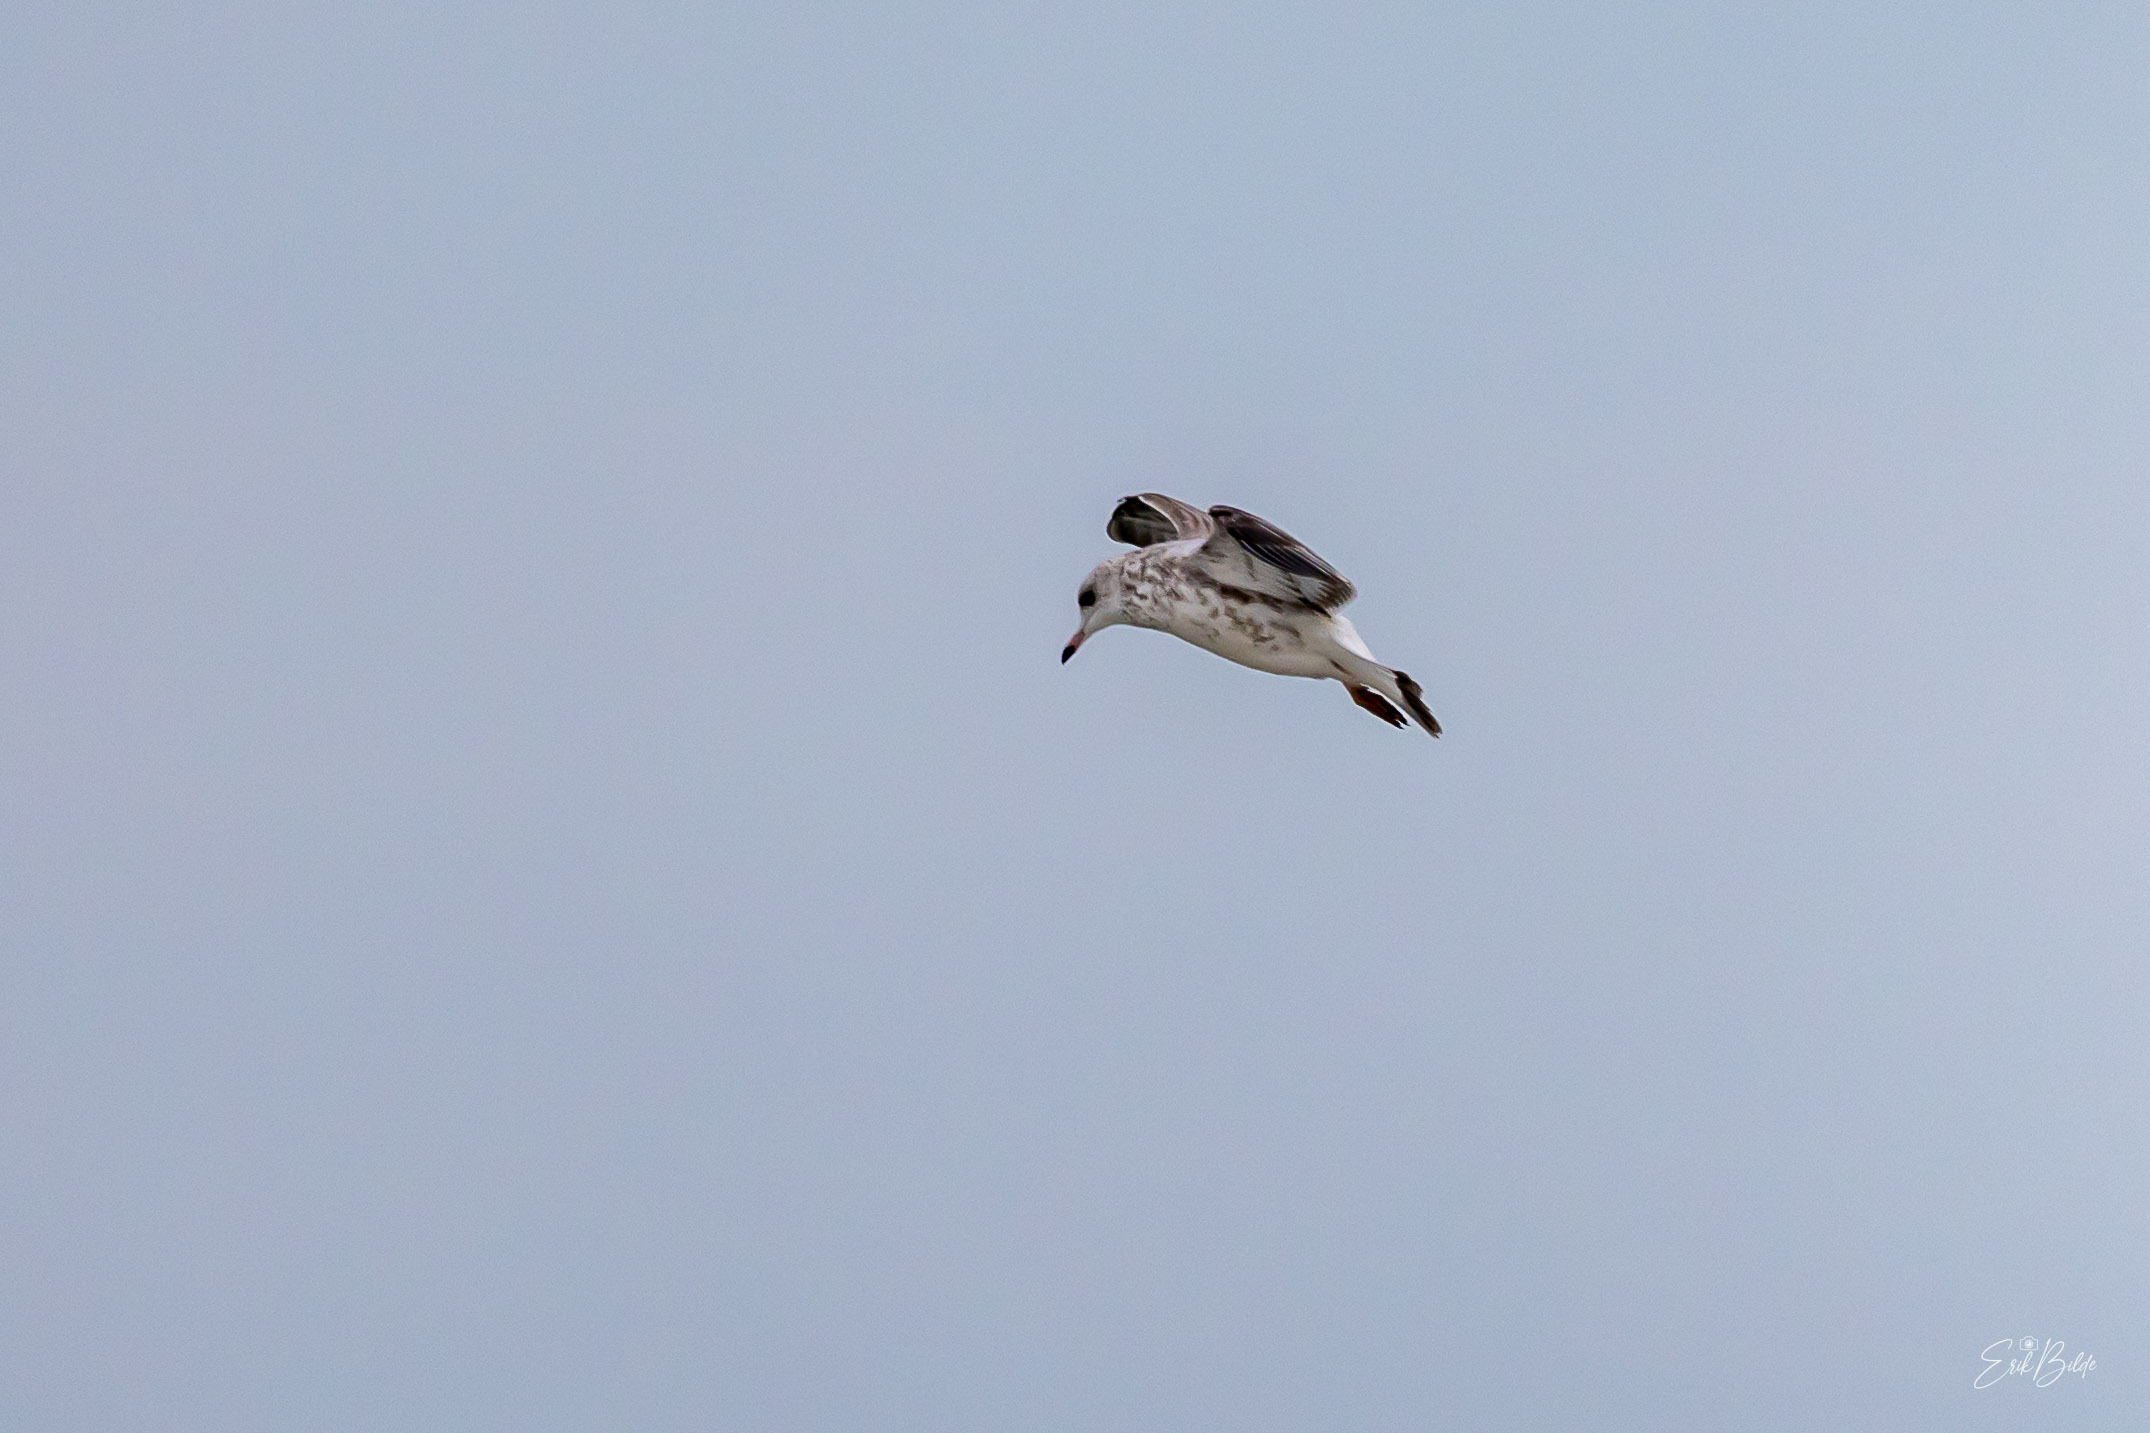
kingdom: Animalia
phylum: Chordata
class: Aves
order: Charadriiformes
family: Laridae
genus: Larus
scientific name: Larus canus
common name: Stormmåge
